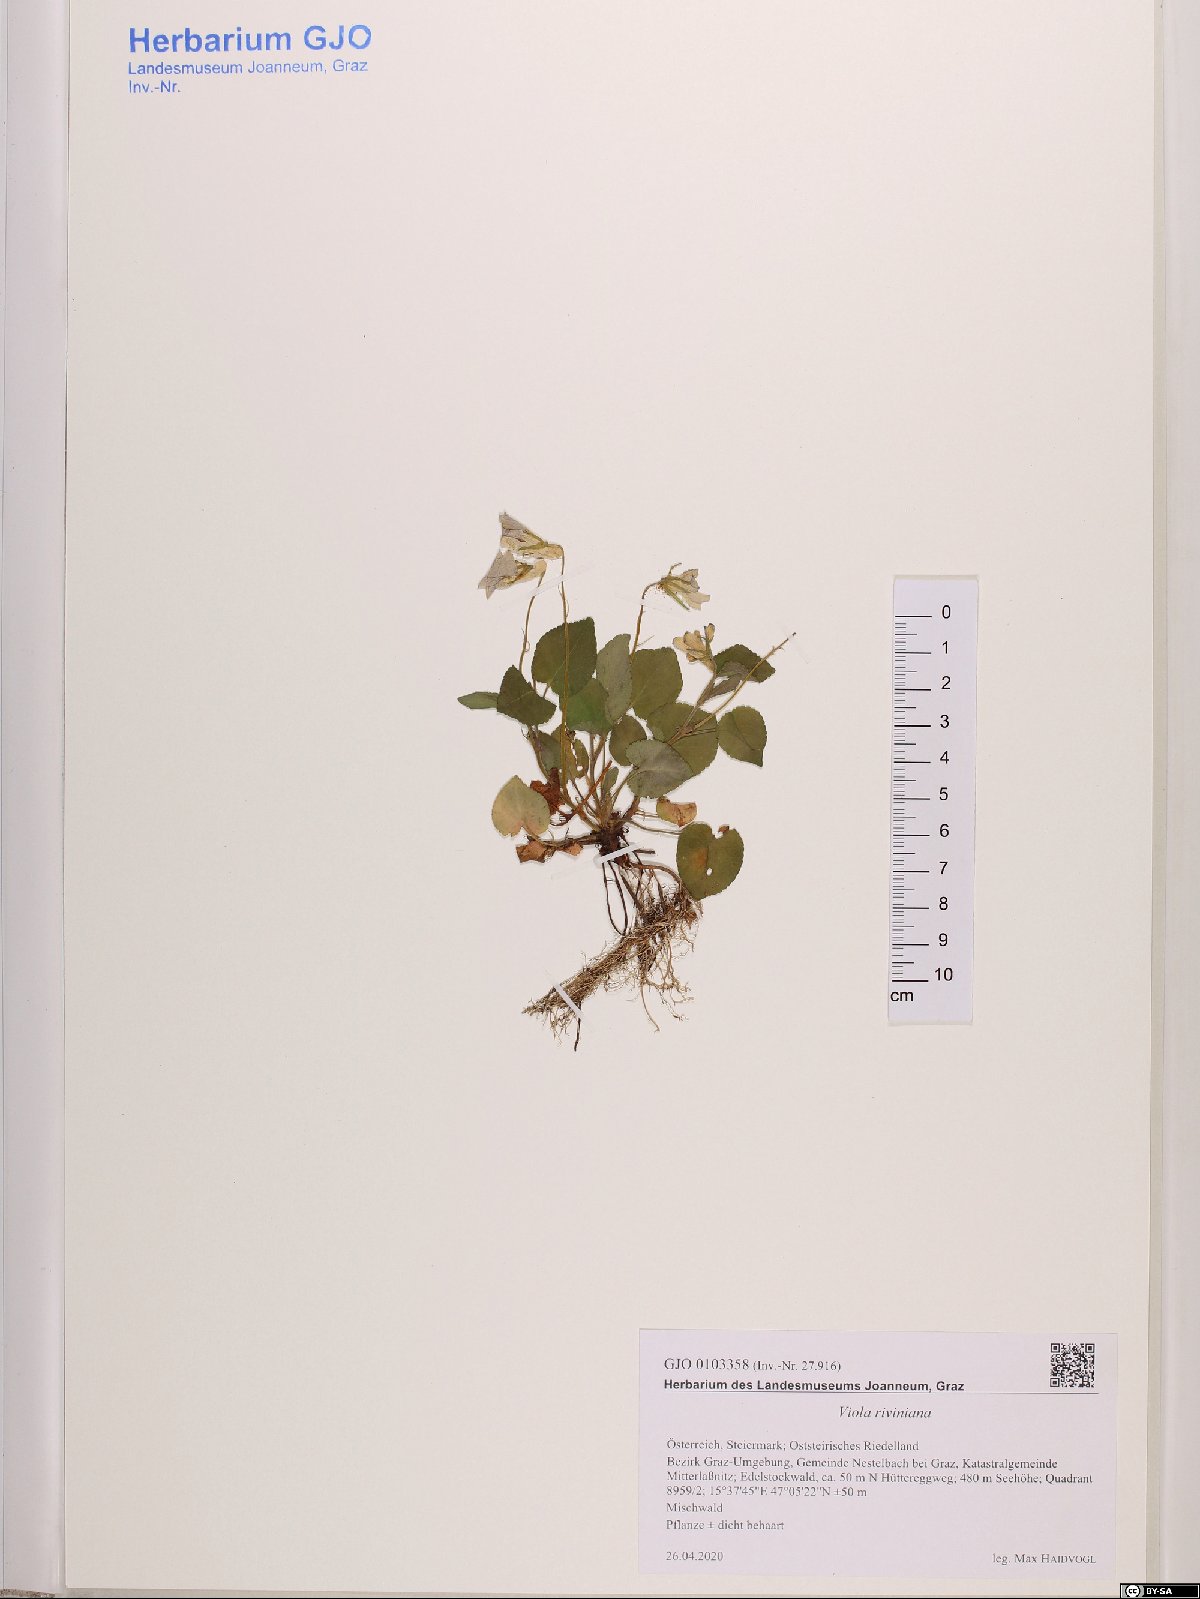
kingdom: Plantae
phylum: Tracheophyta
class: Magnoliopsida
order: Malpighiales
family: Violaceae
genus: Viola
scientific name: Viola riviniana
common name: Common dog-violet
